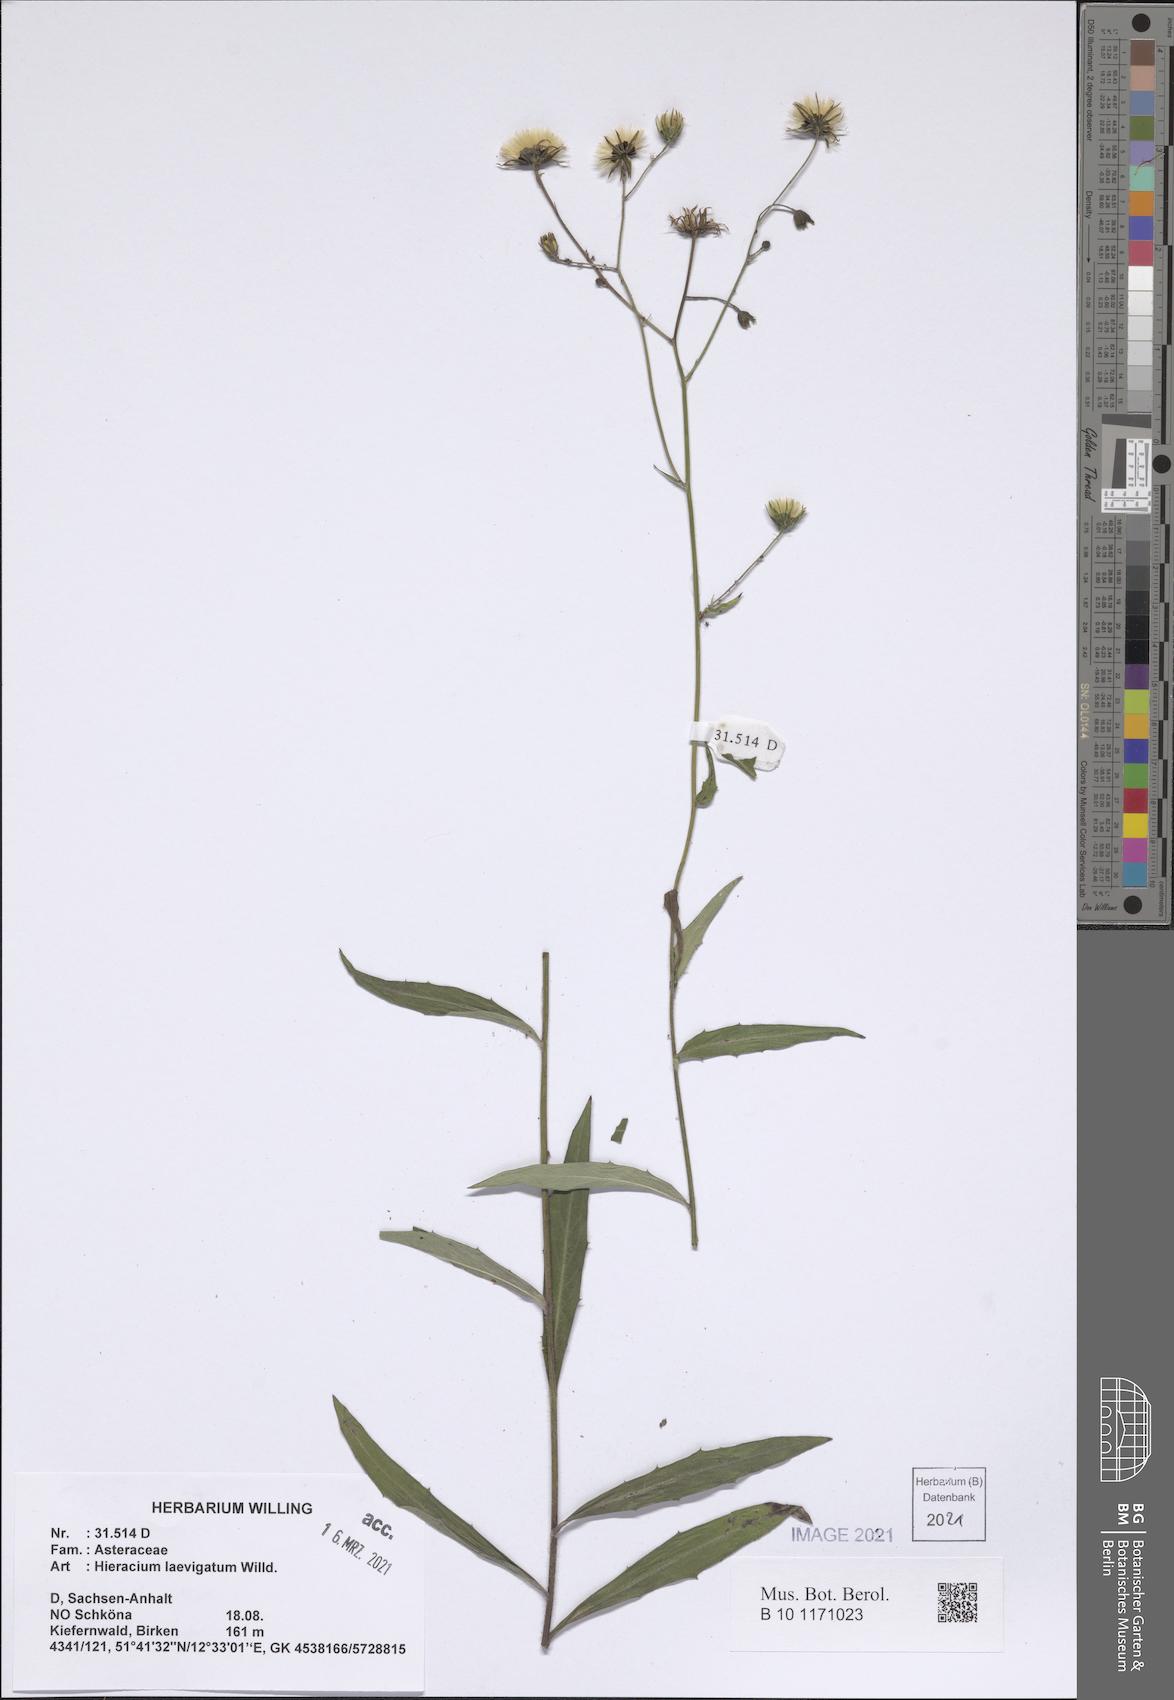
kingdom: Plantae
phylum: Tracheophyta
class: Magnoliopsida
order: Asterales
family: Asteraceae
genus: Hieracium
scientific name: Hieracium laevigatum
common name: Smooth hawkweed
